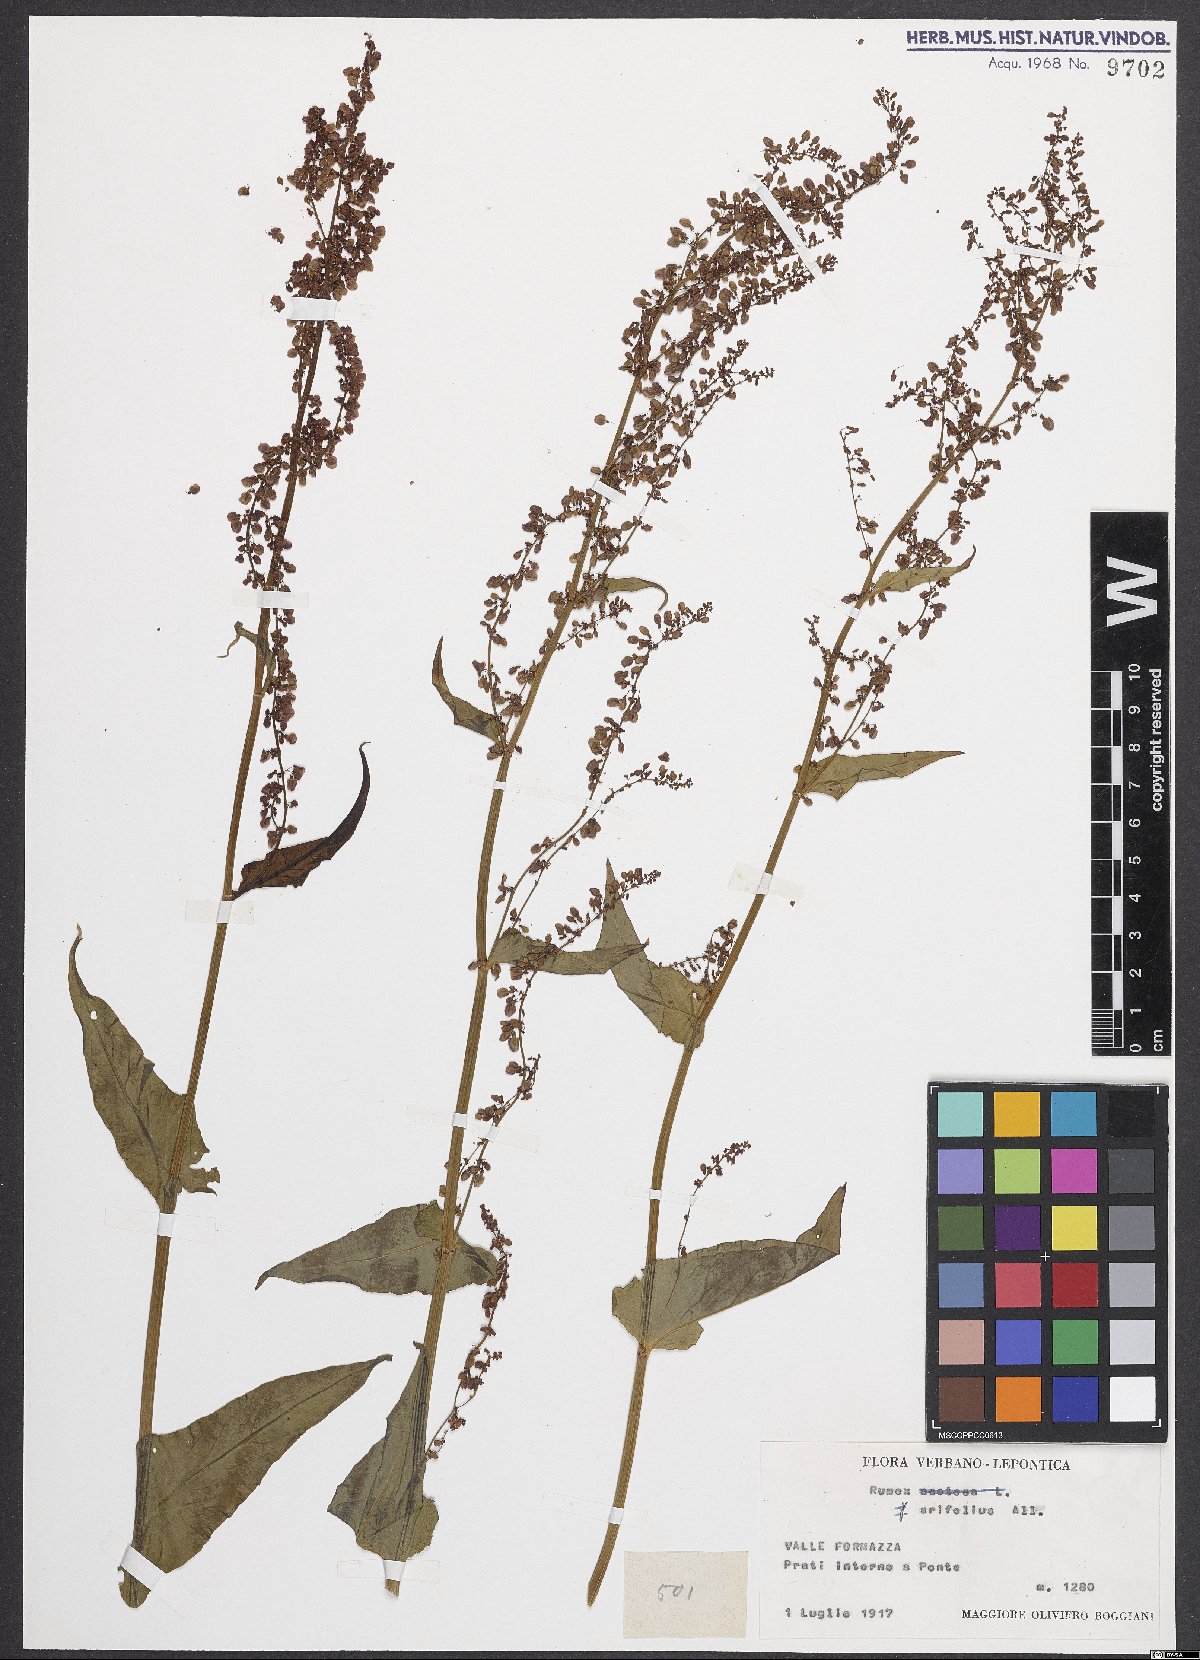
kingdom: Plantae
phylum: Tracheophyta
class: Magnoliopsida
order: Caryophyllales
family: Polygonaceae
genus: Rumex
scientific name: Rumex arifolius
